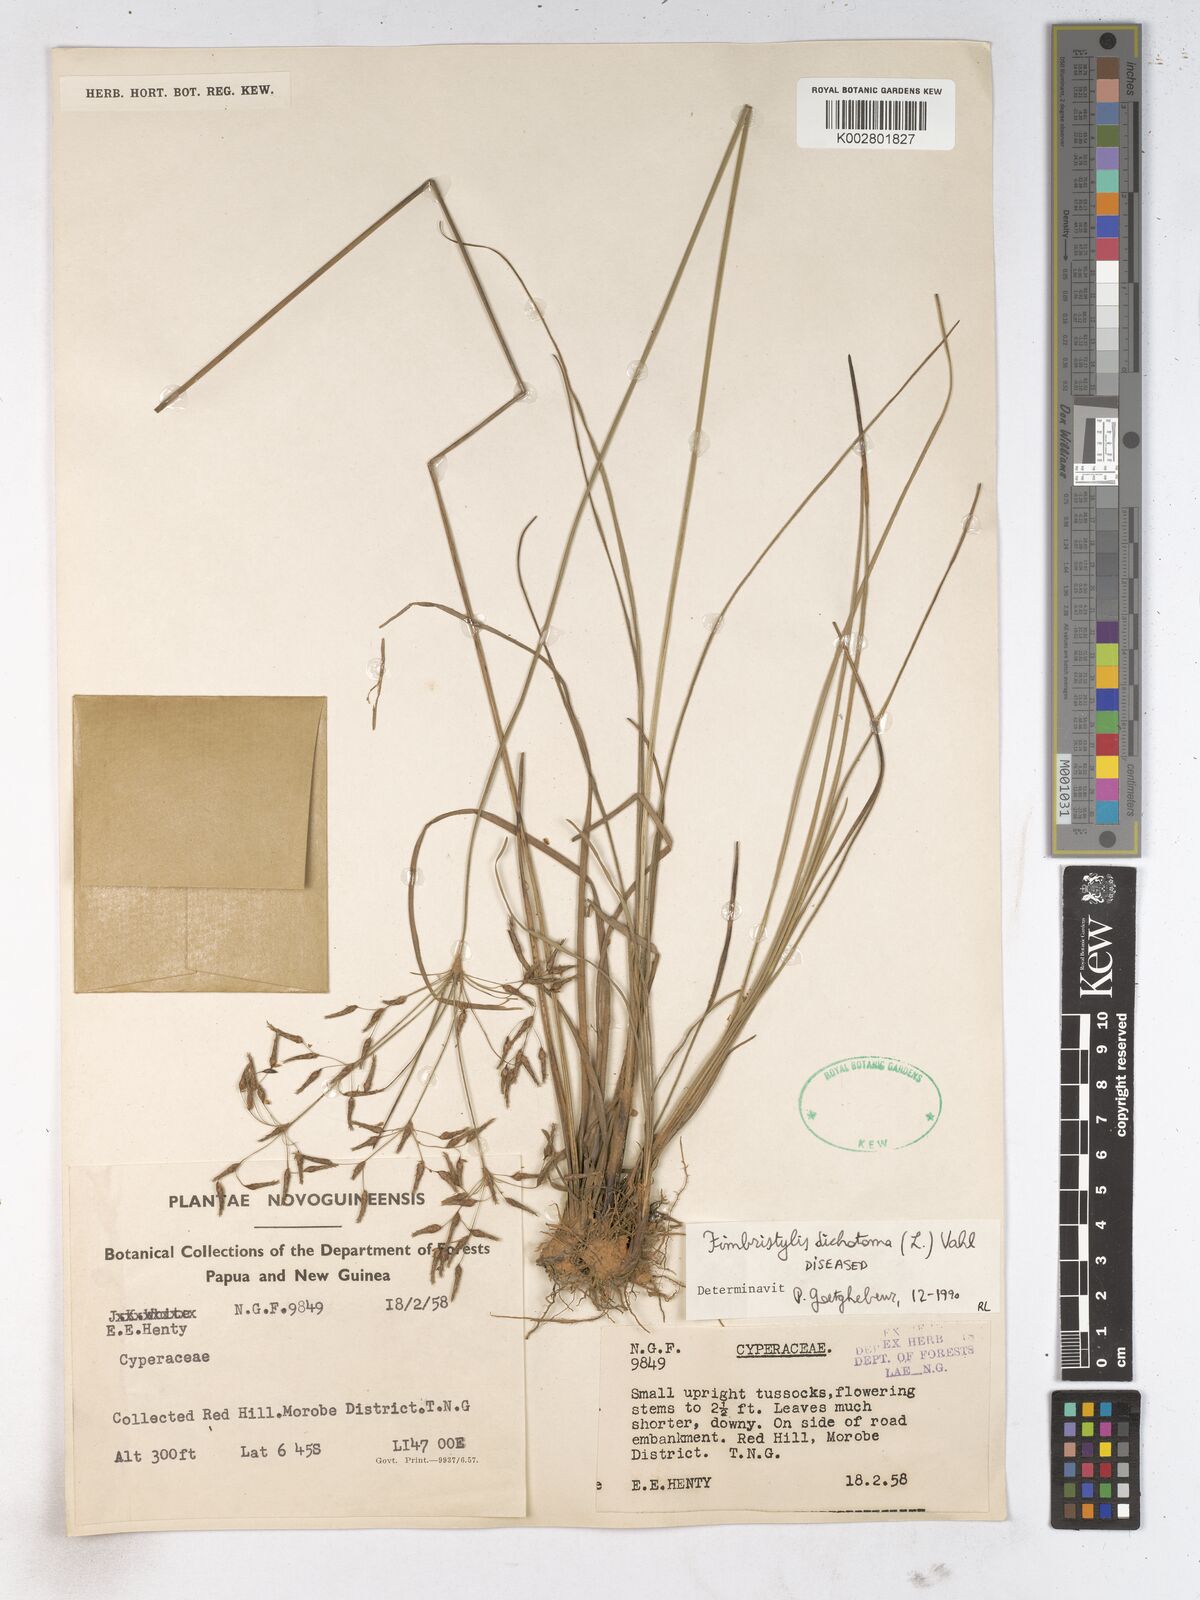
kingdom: Plantae
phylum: Tracheophyta
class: Liliopsida
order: Poales
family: Cyperaceae
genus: Fimbristylis
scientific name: Fimbristylis dichotoma
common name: Forked fimbry
